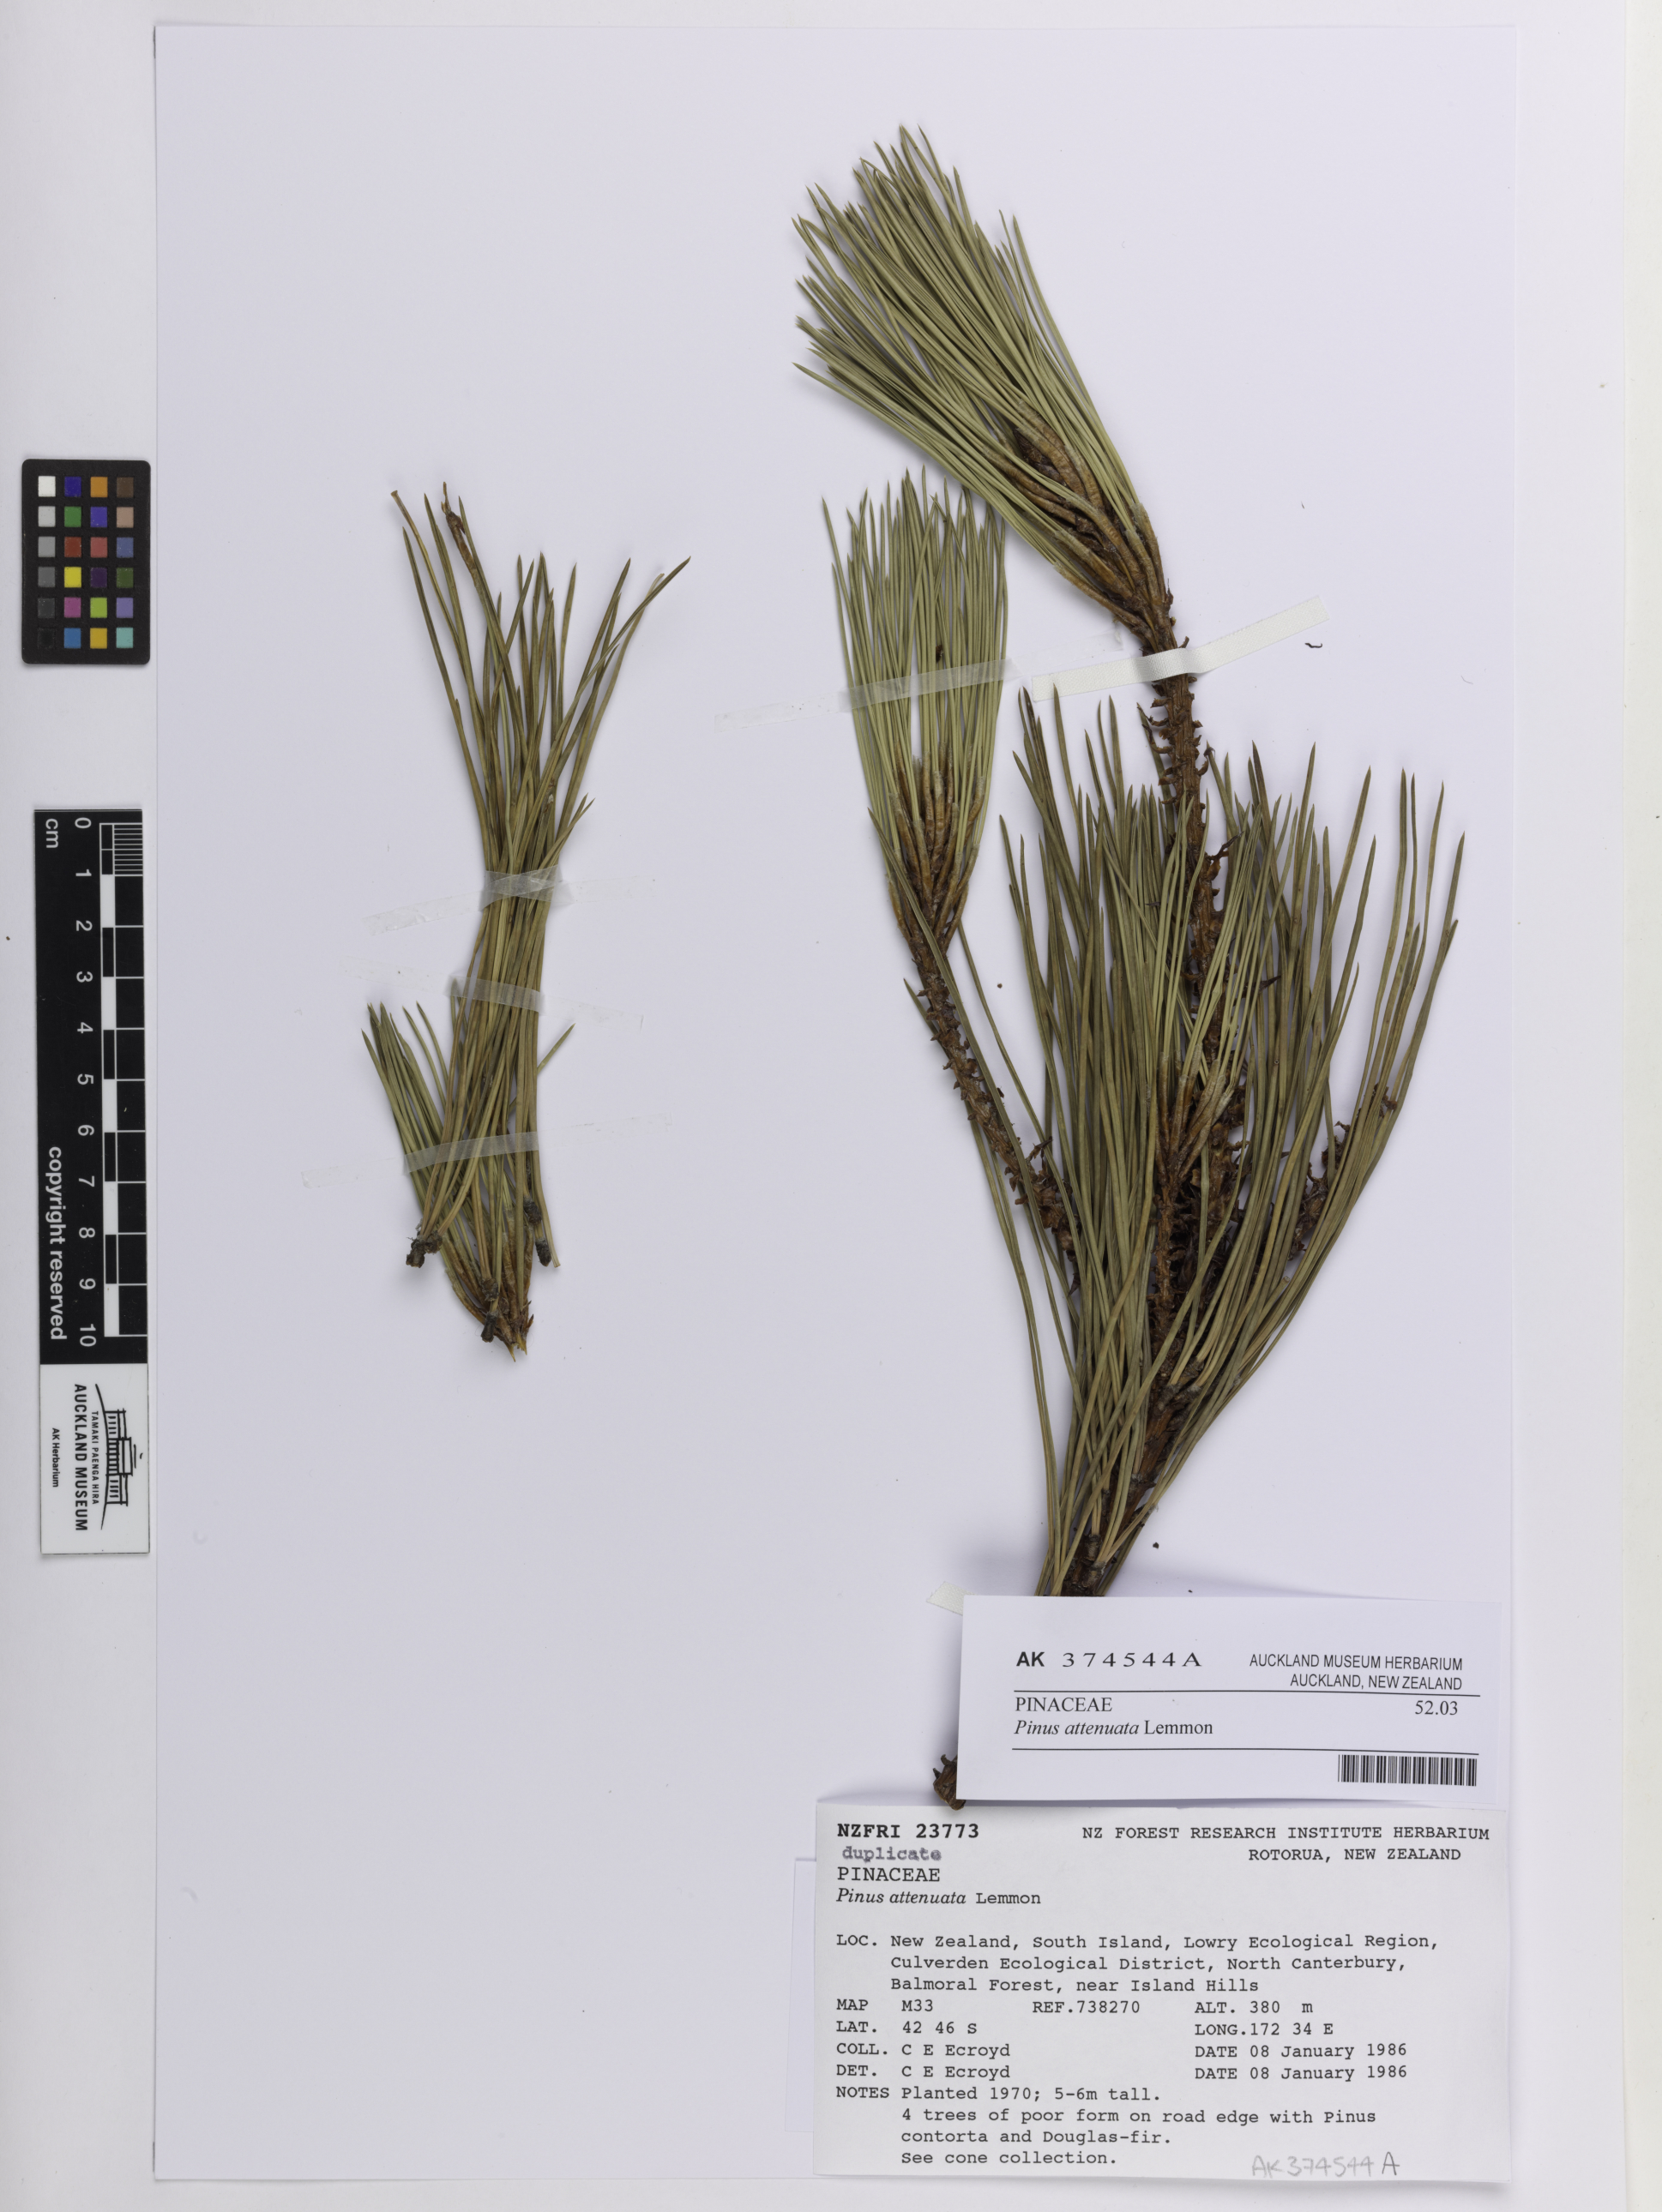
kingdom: Plantae
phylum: Tracheophyta
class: Pinopsida
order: Pinales
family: Pinaceae
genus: Pinus
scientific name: Pinus attenuata
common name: Knobcone pine
